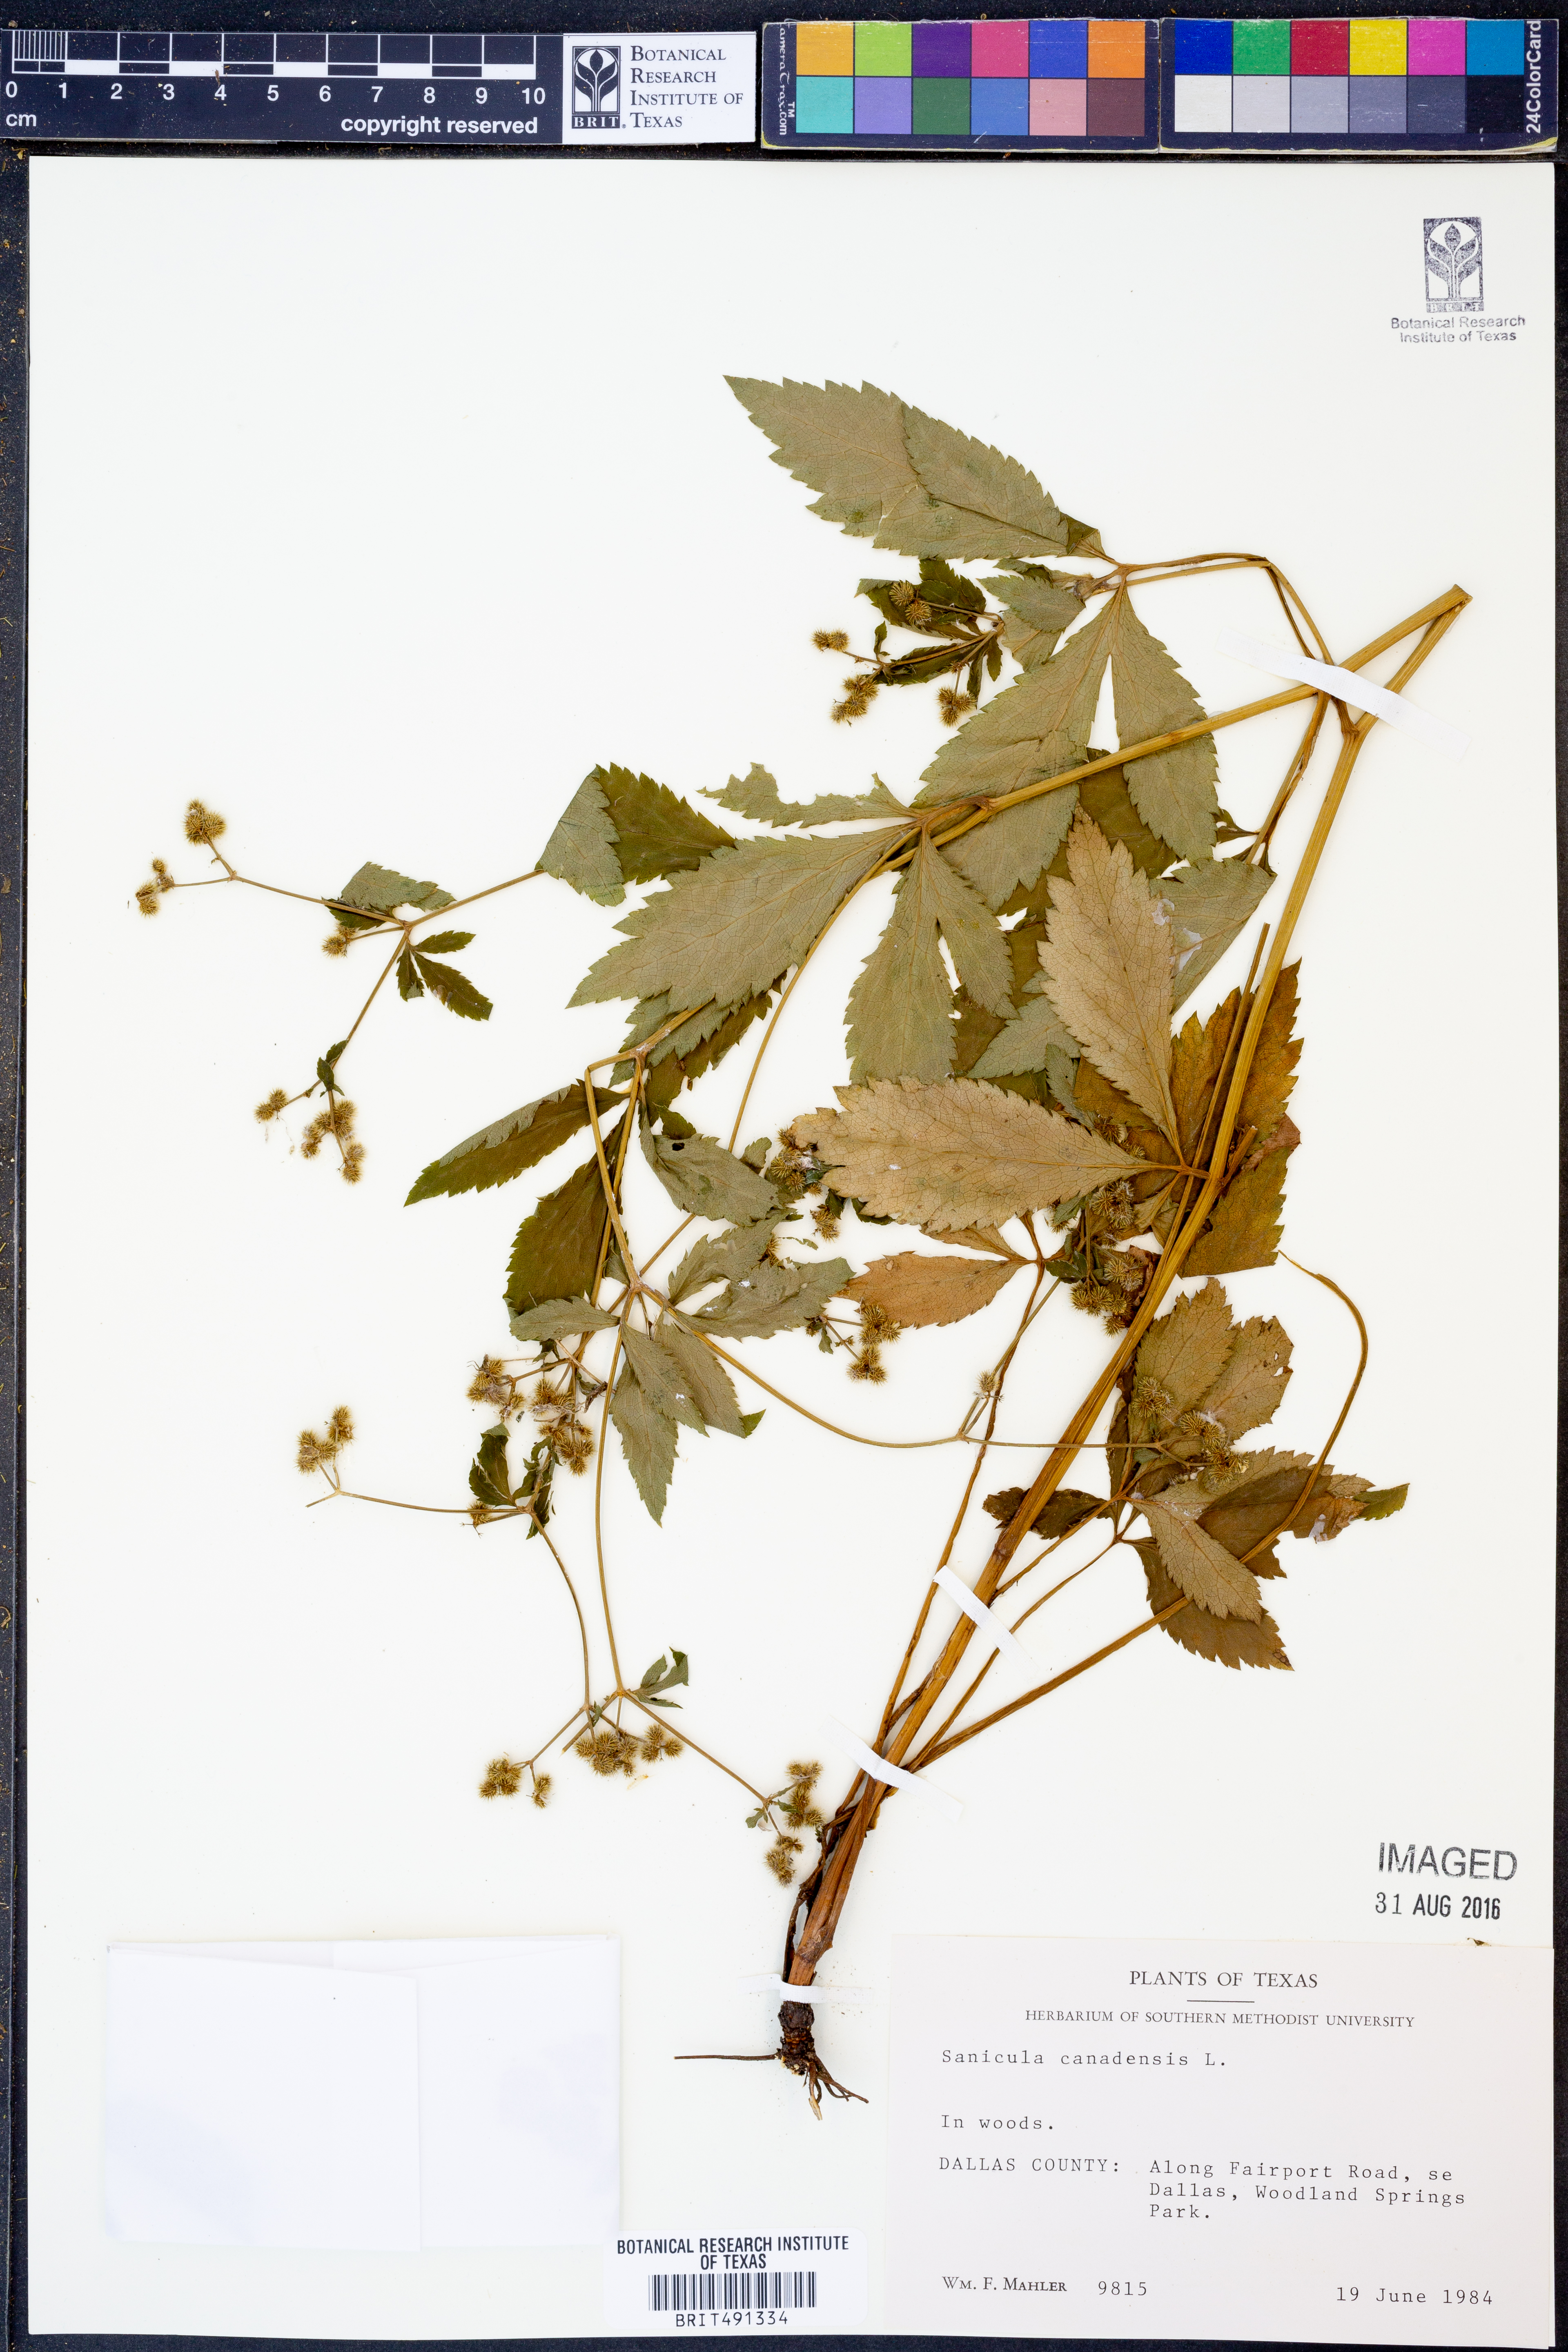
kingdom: Plantae
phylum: Tracheophyta
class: Magnoliopsida
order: Apiales
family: Apiaceae
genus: Sanicula
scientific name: Sanicula canadensis
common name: Canada sanicle
